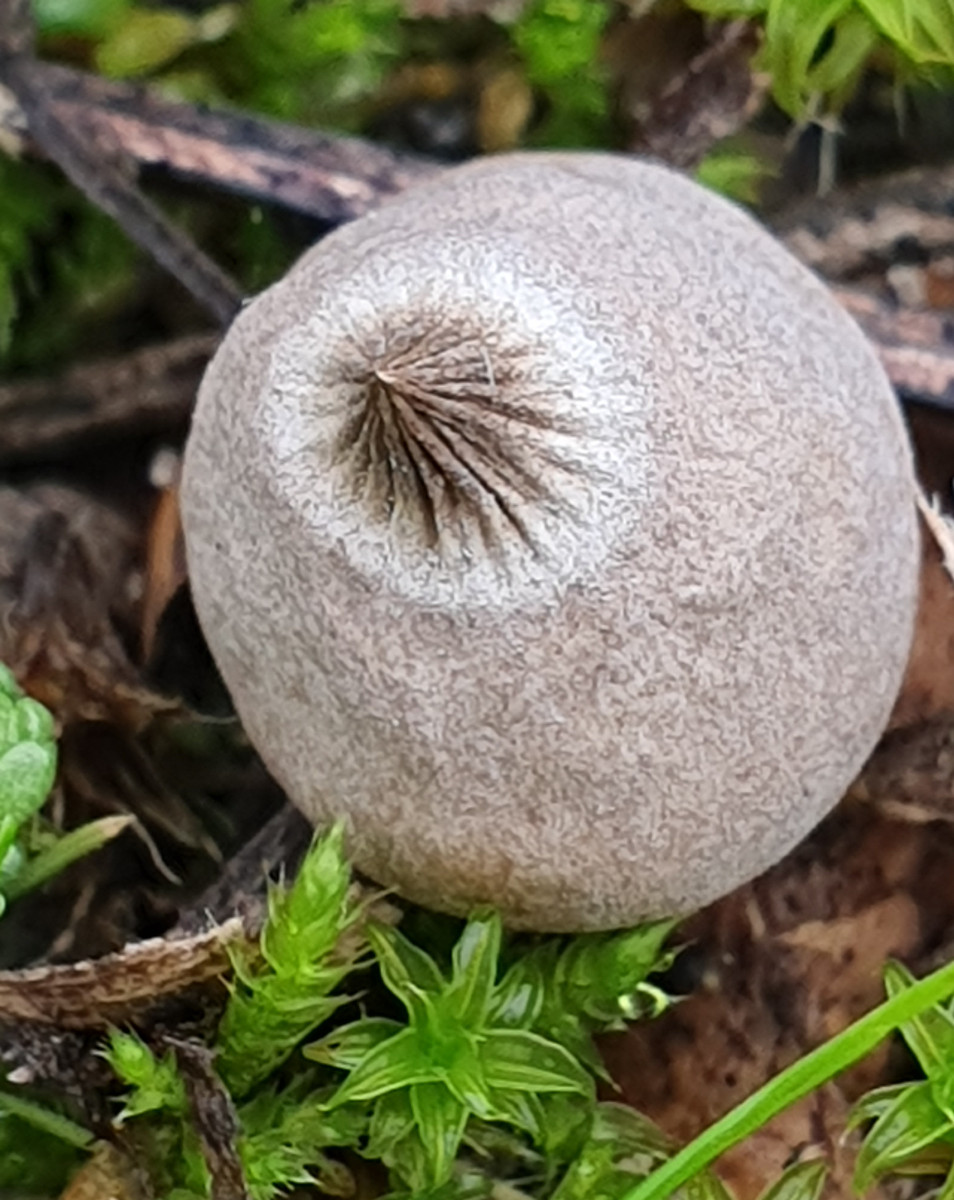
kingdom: Fungi
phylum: Basidiomycota
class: Agaricomycetes
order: Geastrales
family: Geastraceae
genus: Geastrum
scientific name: Geastrum striatum
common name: dværg-stjernebold
